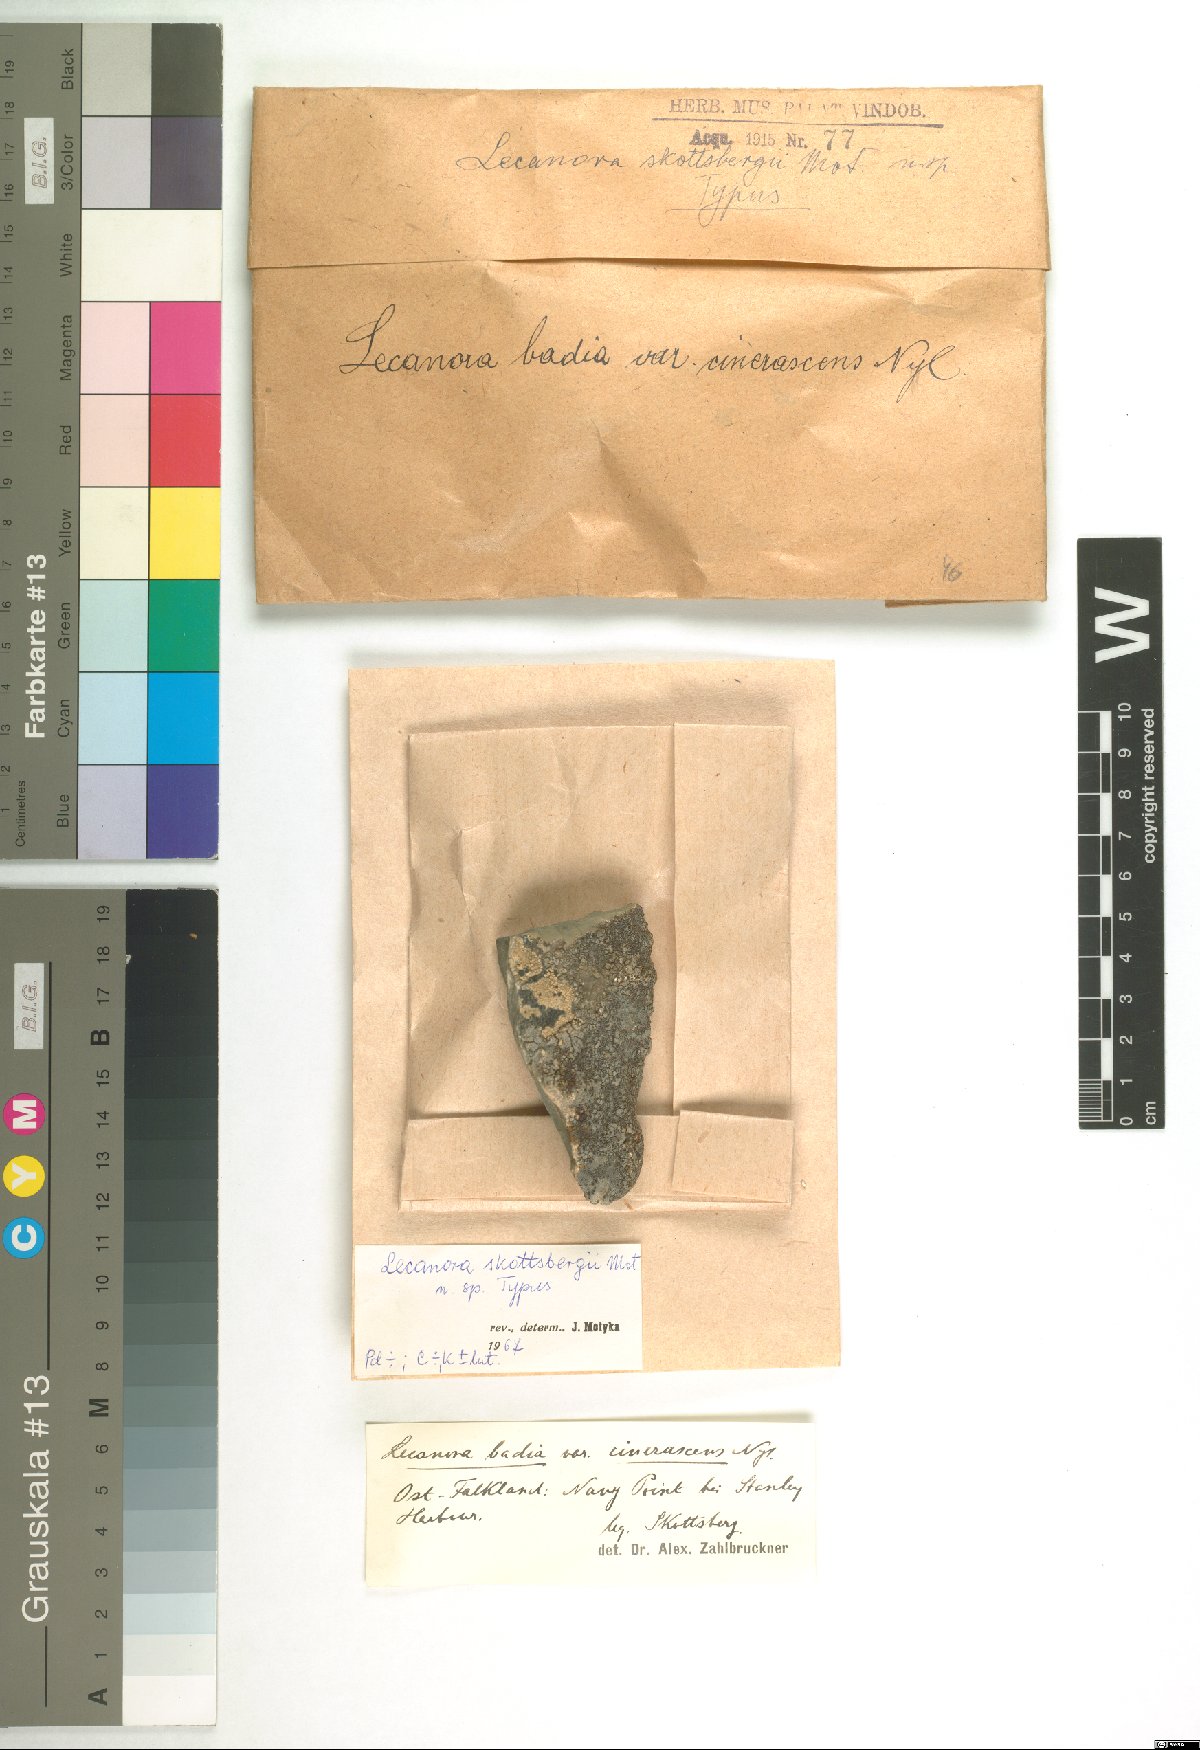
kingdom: Fungi
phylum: Ascomycota
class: Lecanoromycetes
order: Lecanorales
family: Tephromelataceae
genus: Tephromela
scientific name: Tephromela skottsbergii
